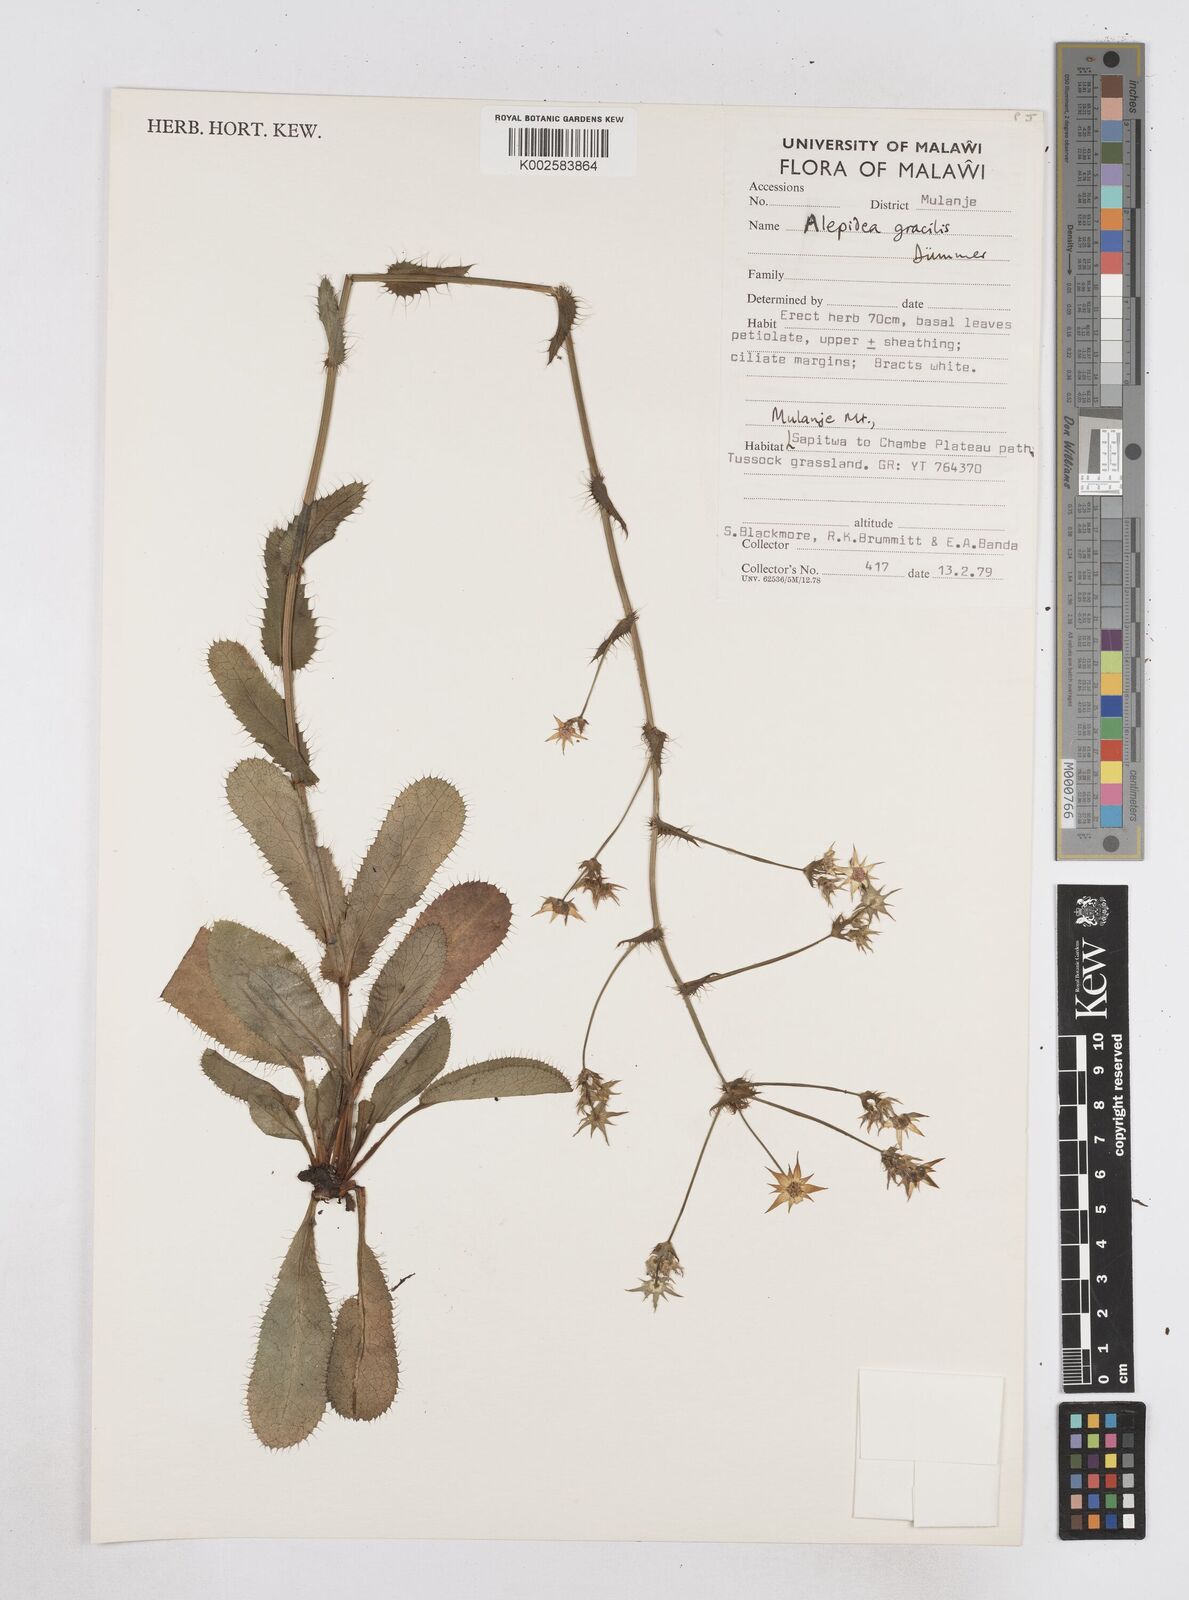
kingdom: Plantae
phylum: Tracheophyta
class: Magnoliopsida
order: Apiales
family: Apiaceae
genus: Alepidea
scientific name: Alepidea peduncularis
